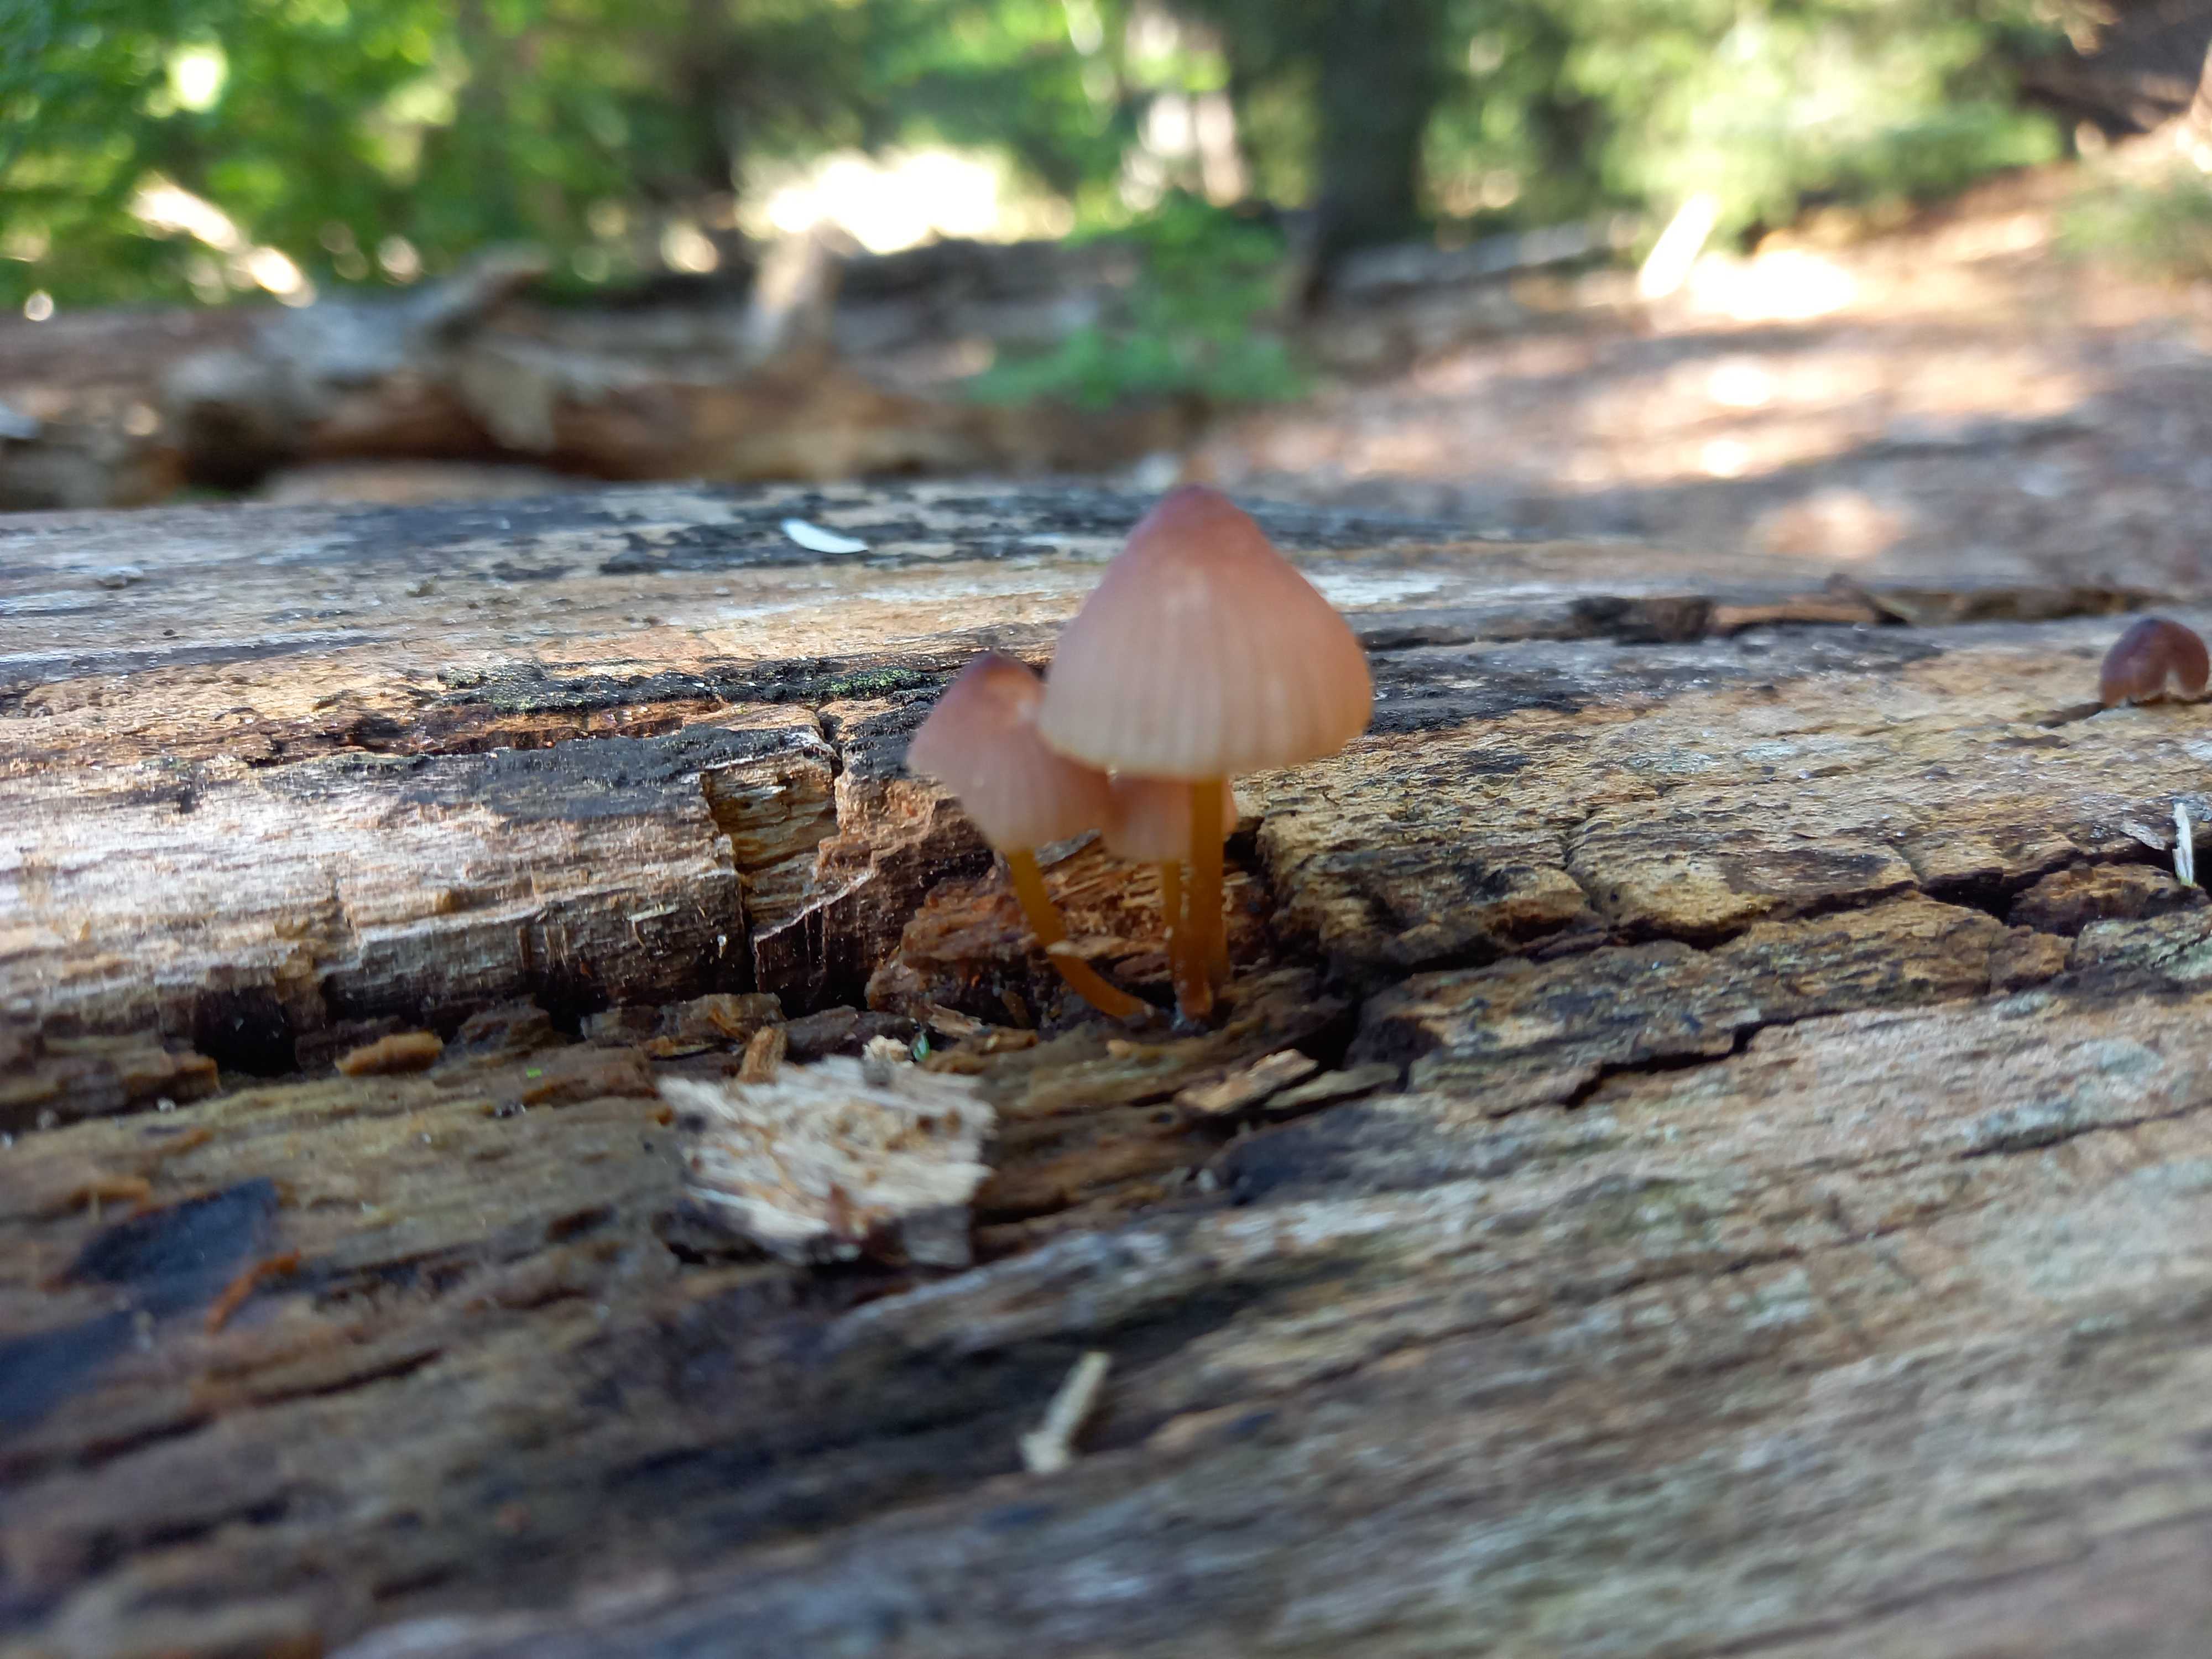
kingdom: Fungi
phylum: Basidiomycota
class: Agaricomycetes
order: Agaricales
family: Mycenaceae
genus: Mycena
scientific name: Mycena renati
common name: smuk huesvamp
